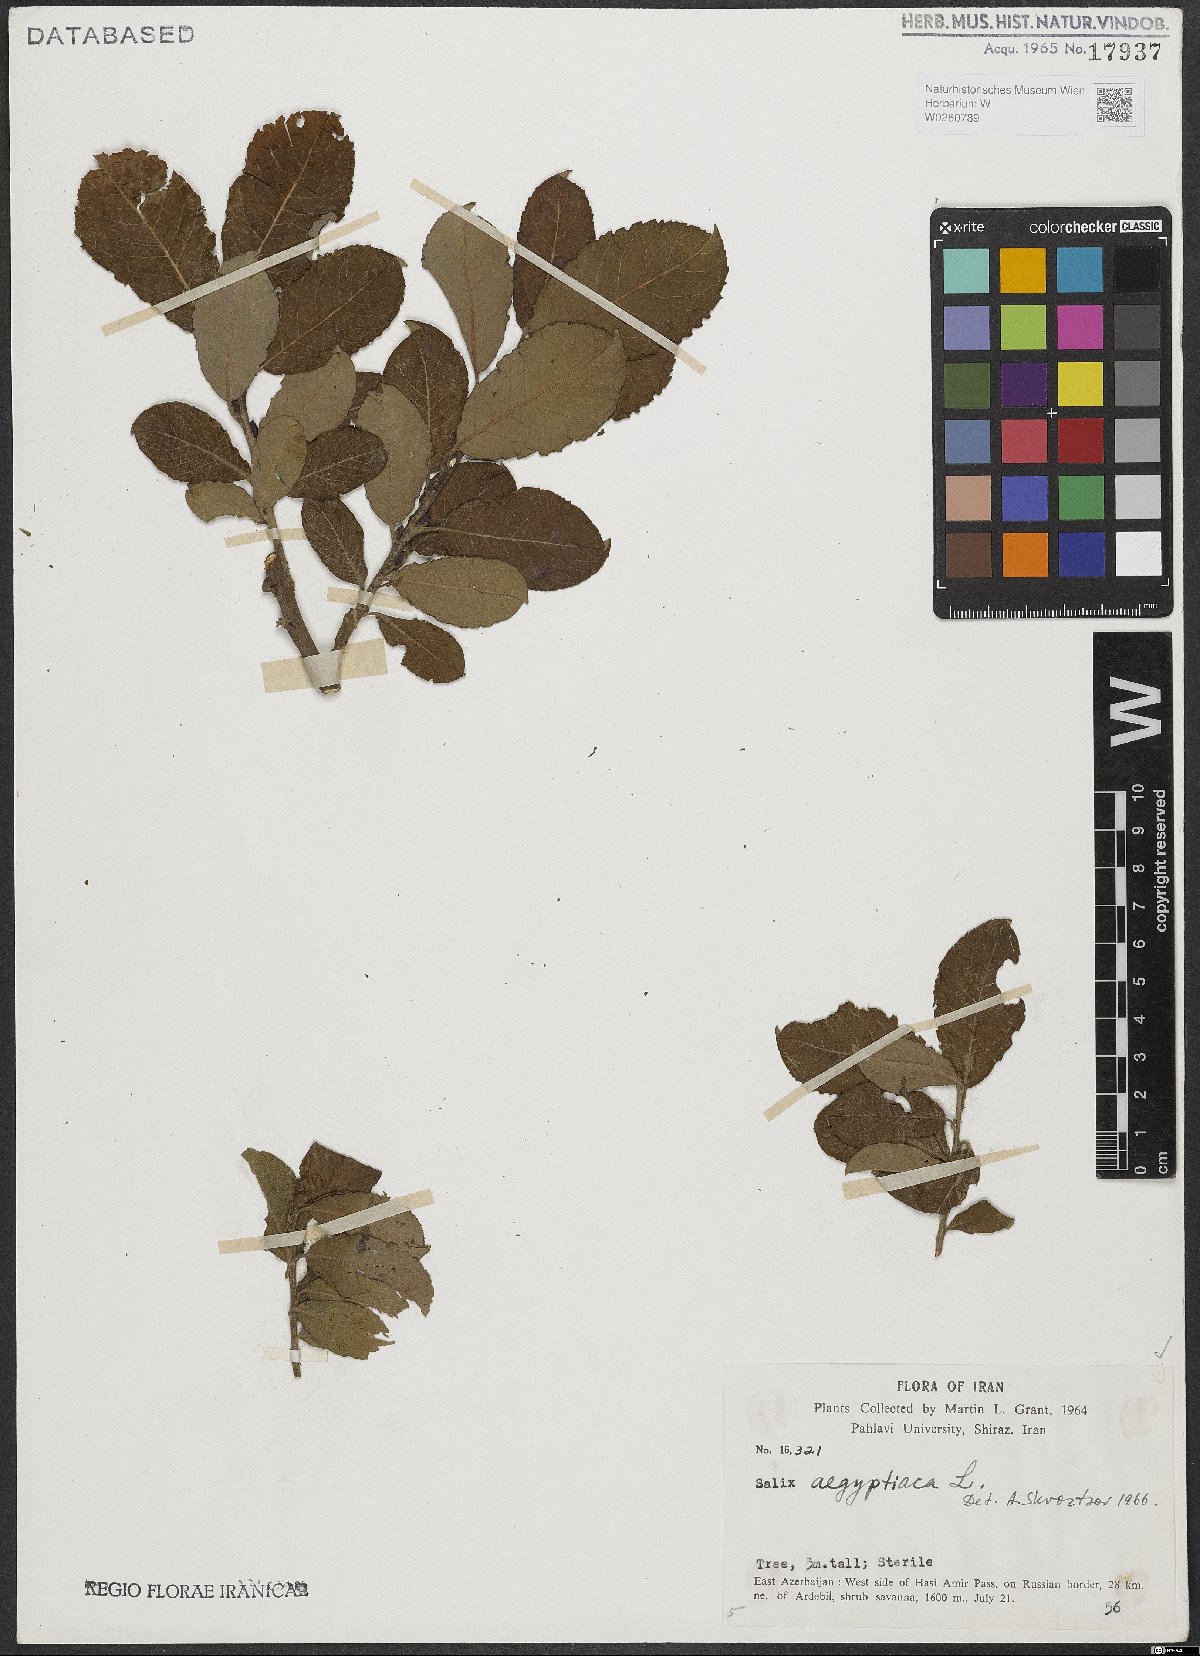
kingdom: Plantae
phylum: Tracheophyta
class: Magnoliopsida
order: Malpighiales
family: Salicaceae
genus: Salix
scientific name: Salix aegyptiaca
